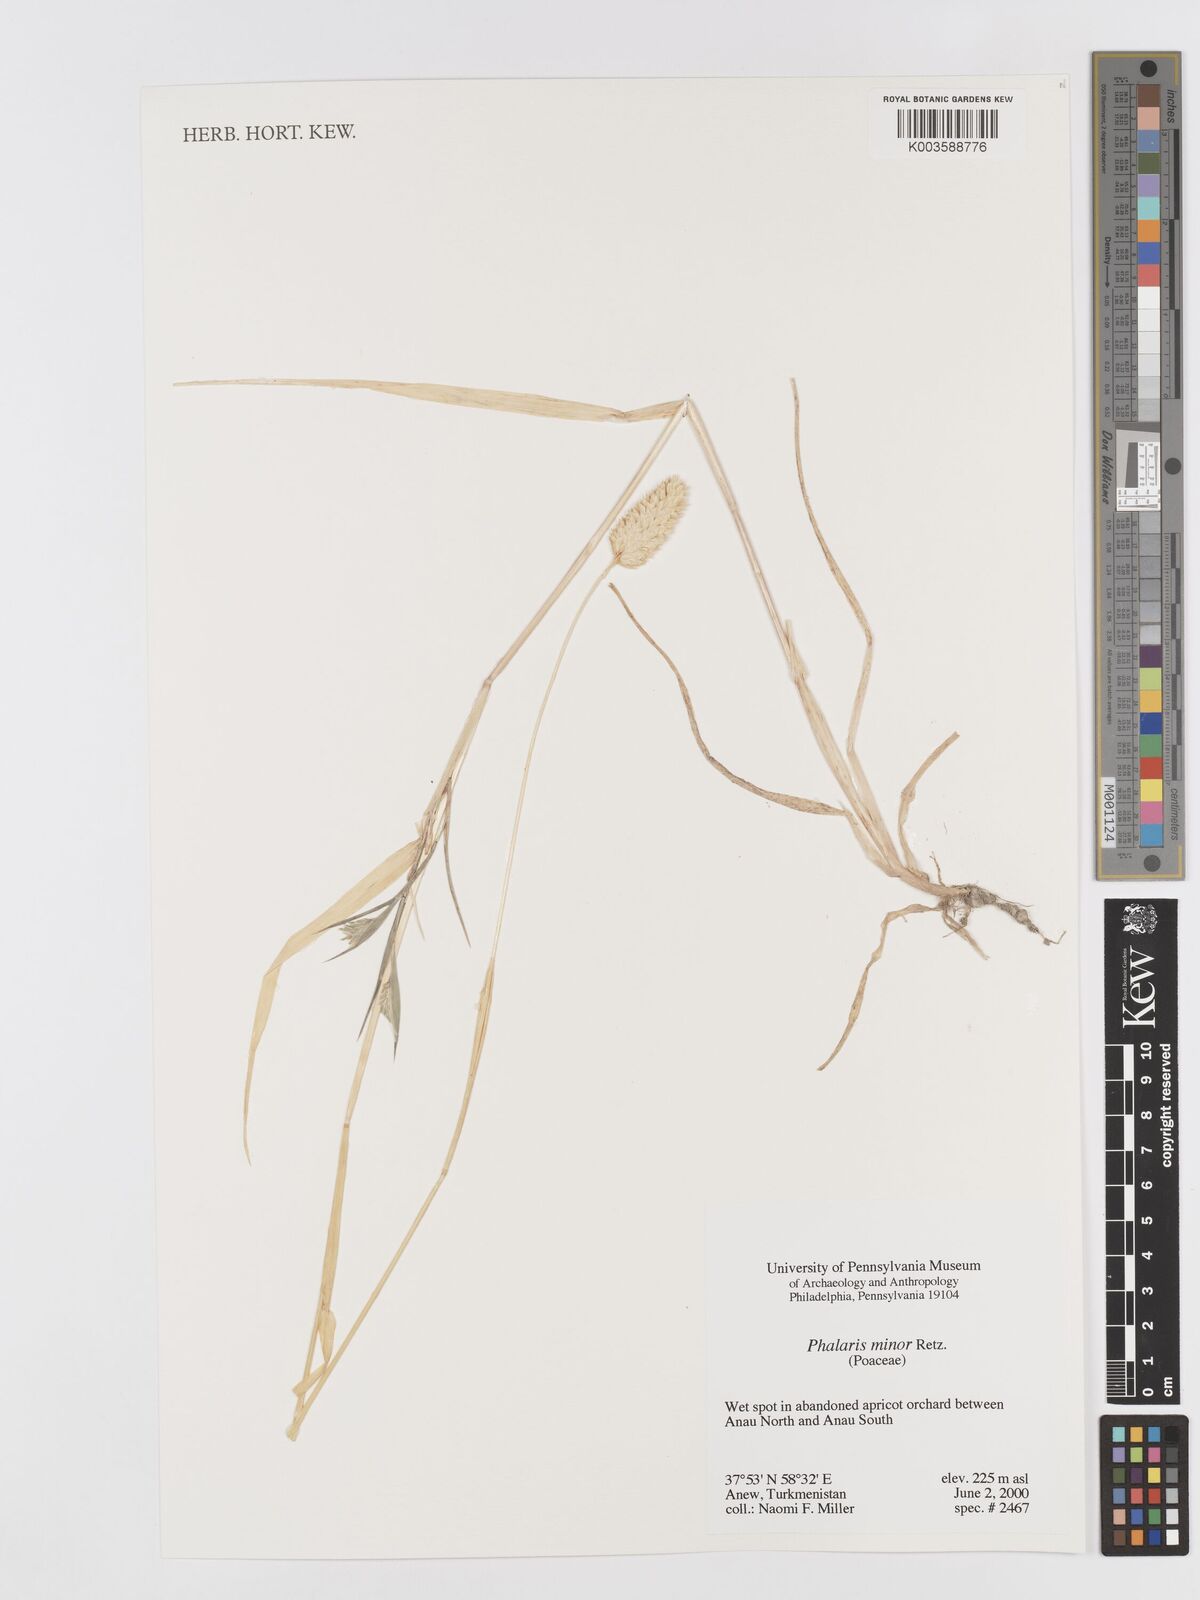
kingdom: Plantae
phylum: Tracheophyta
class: Liliopsida
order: Poales
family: Poaceae
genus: Phalaris
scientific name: Phalaris minor
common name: Littleseed canarygrass
